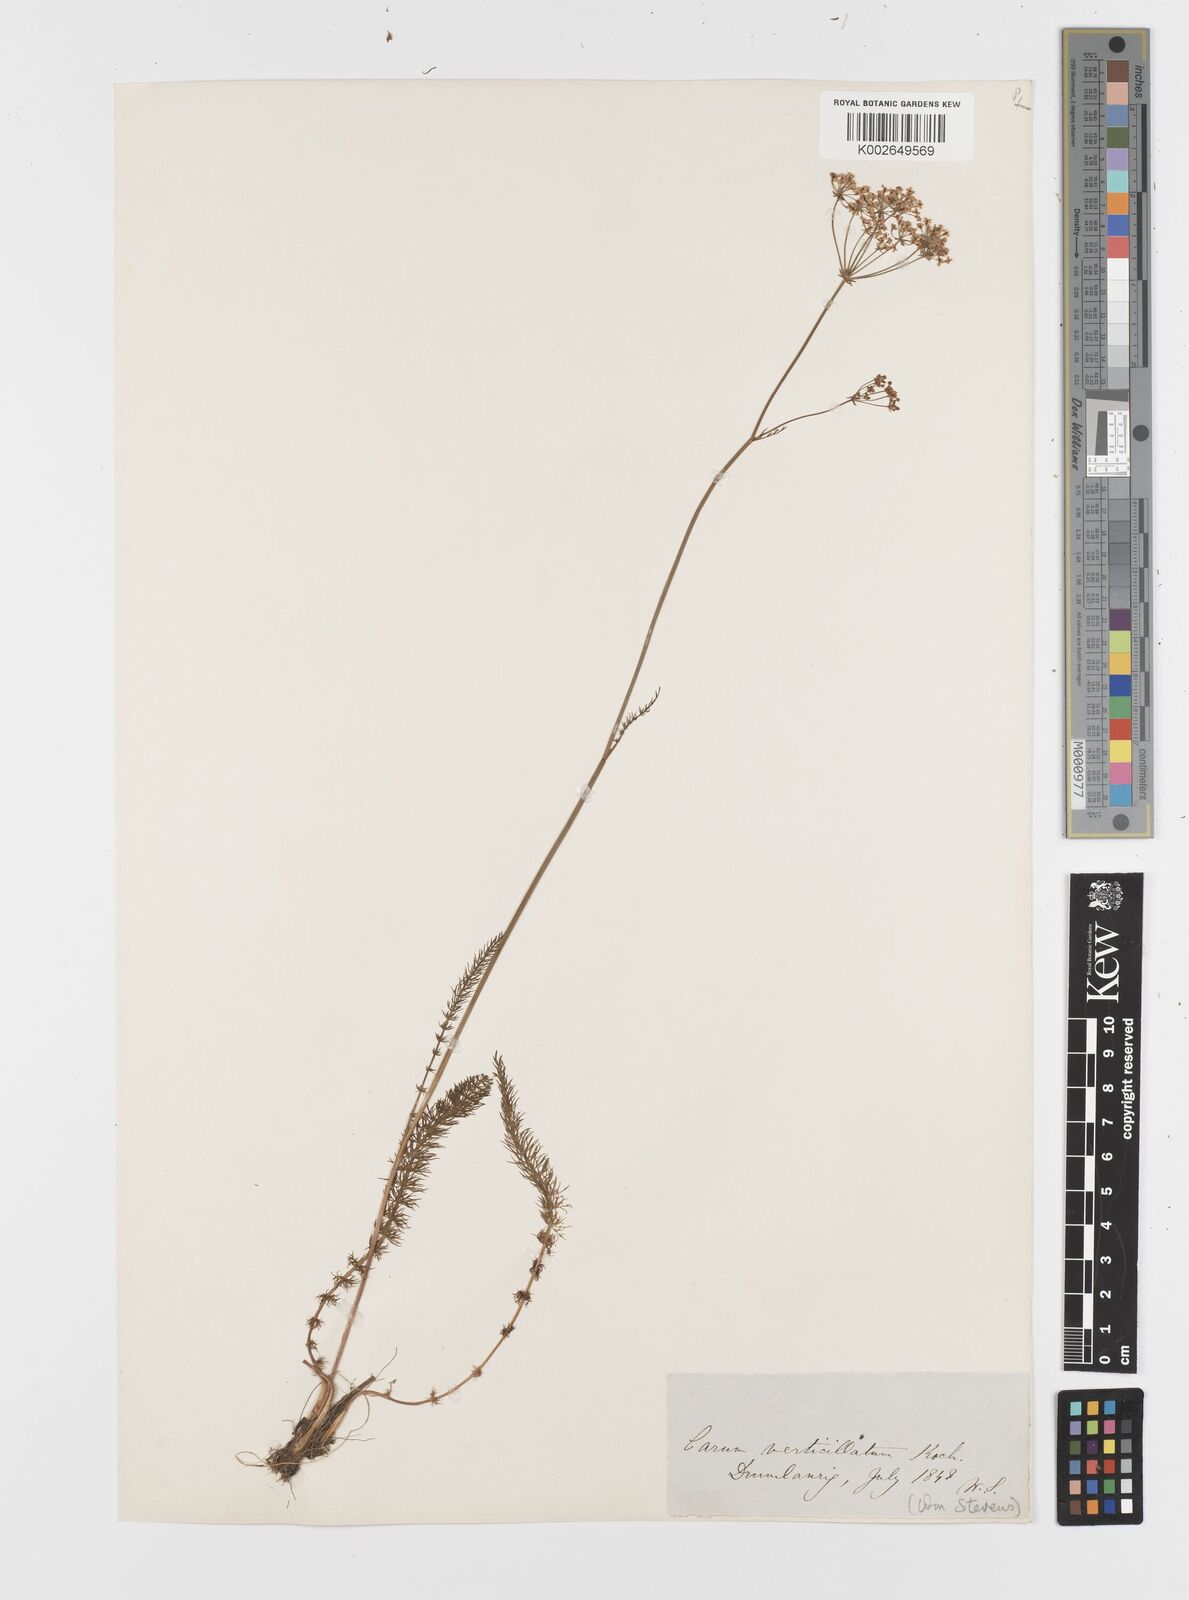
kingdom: Plantae
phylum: Tracheophyta
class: Magnoliopsida
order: Apiales
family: Apiaceae
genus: Trocdaris
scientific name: Trocdaris verticillatum
